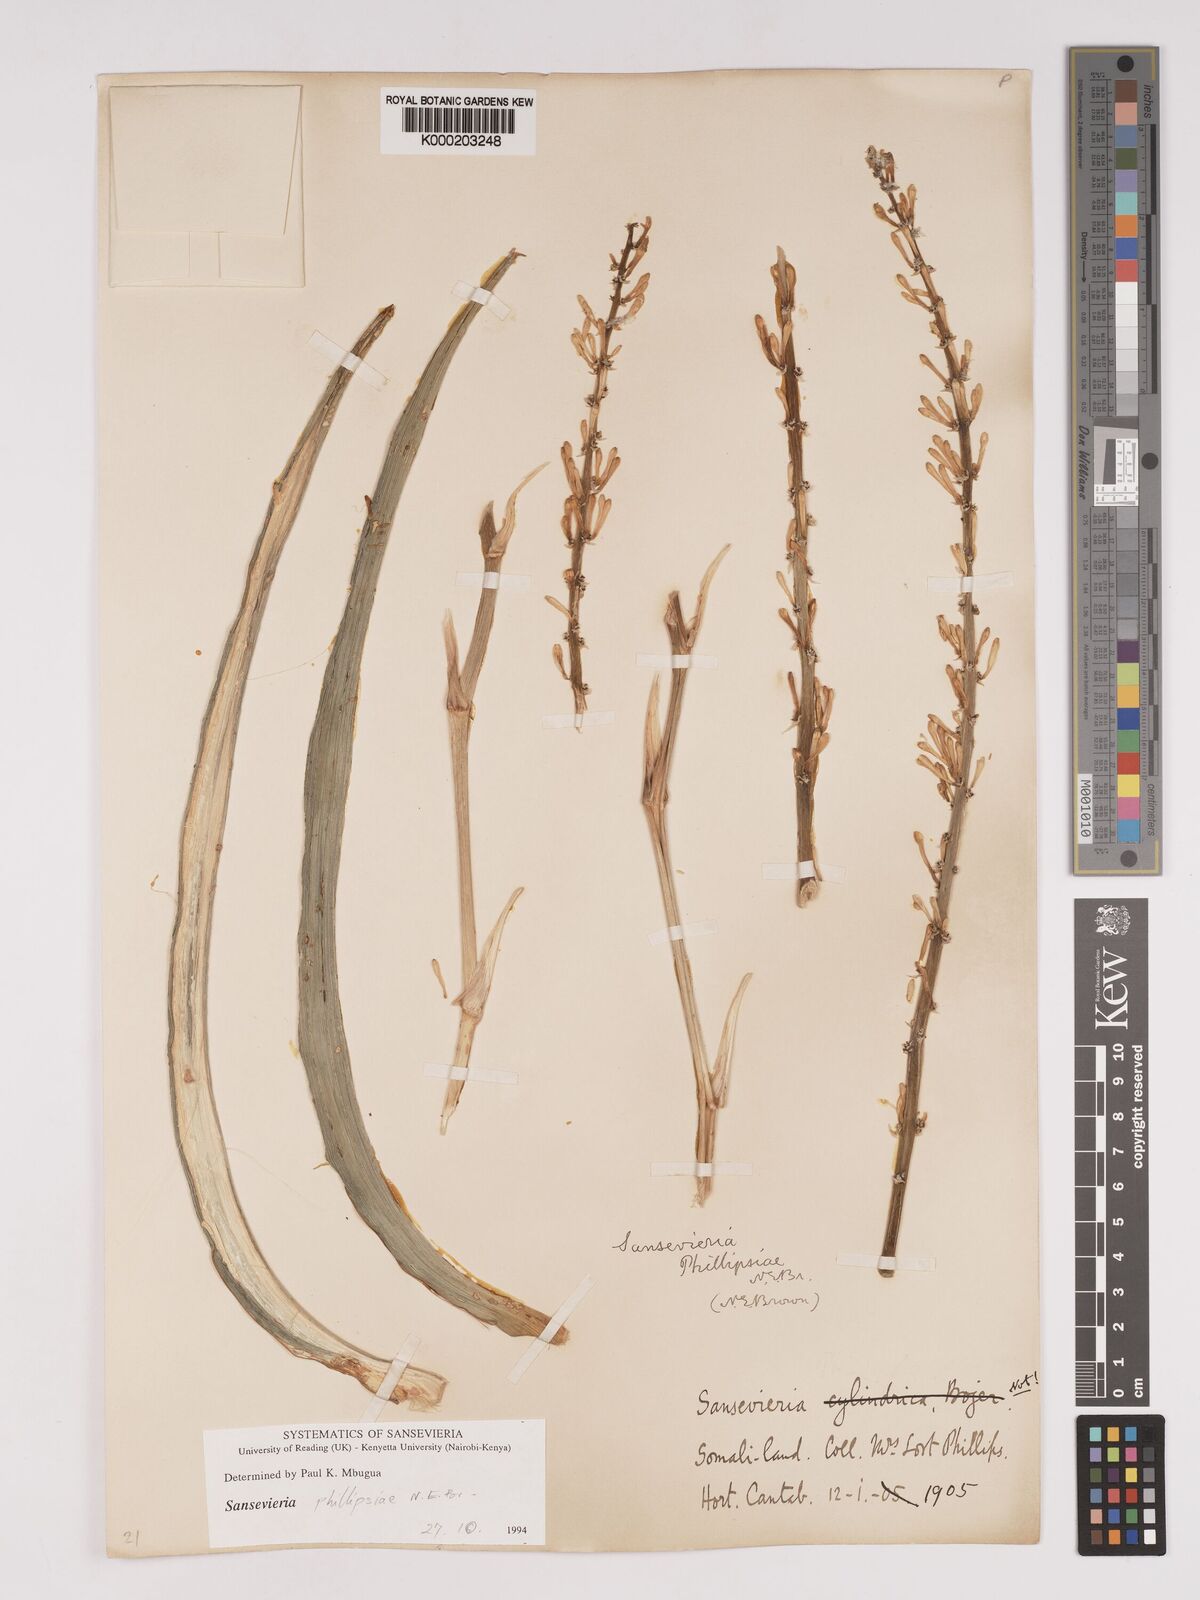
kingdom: Plantae
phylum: Tracheophyta
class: Liliopsida
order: Asparagales
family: Asparagaceae
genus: Dracaena
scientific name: Dracaena phillipsiae
